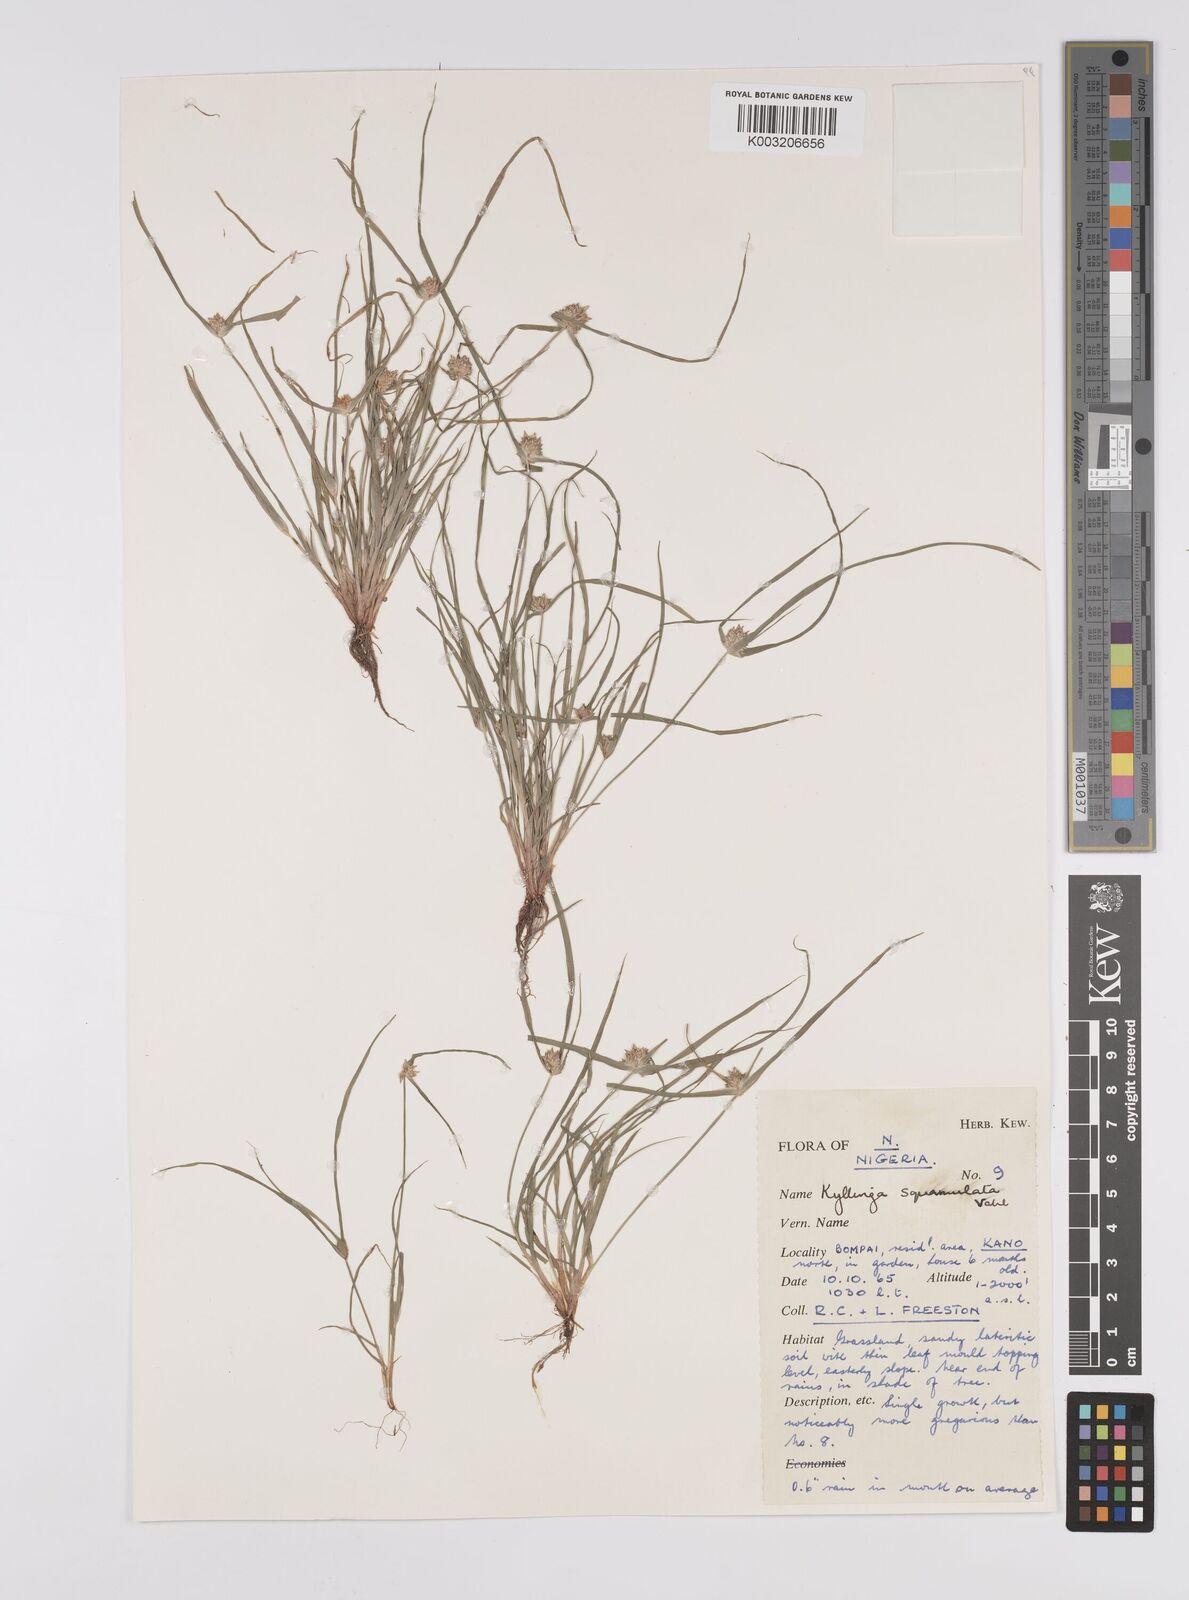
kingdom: Plantae
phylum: Tracheophyta
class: Liliopsida
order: Poales
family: Cyperaceae
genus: Cyperus
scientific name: Cyperus distans
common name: Slender cyperus
